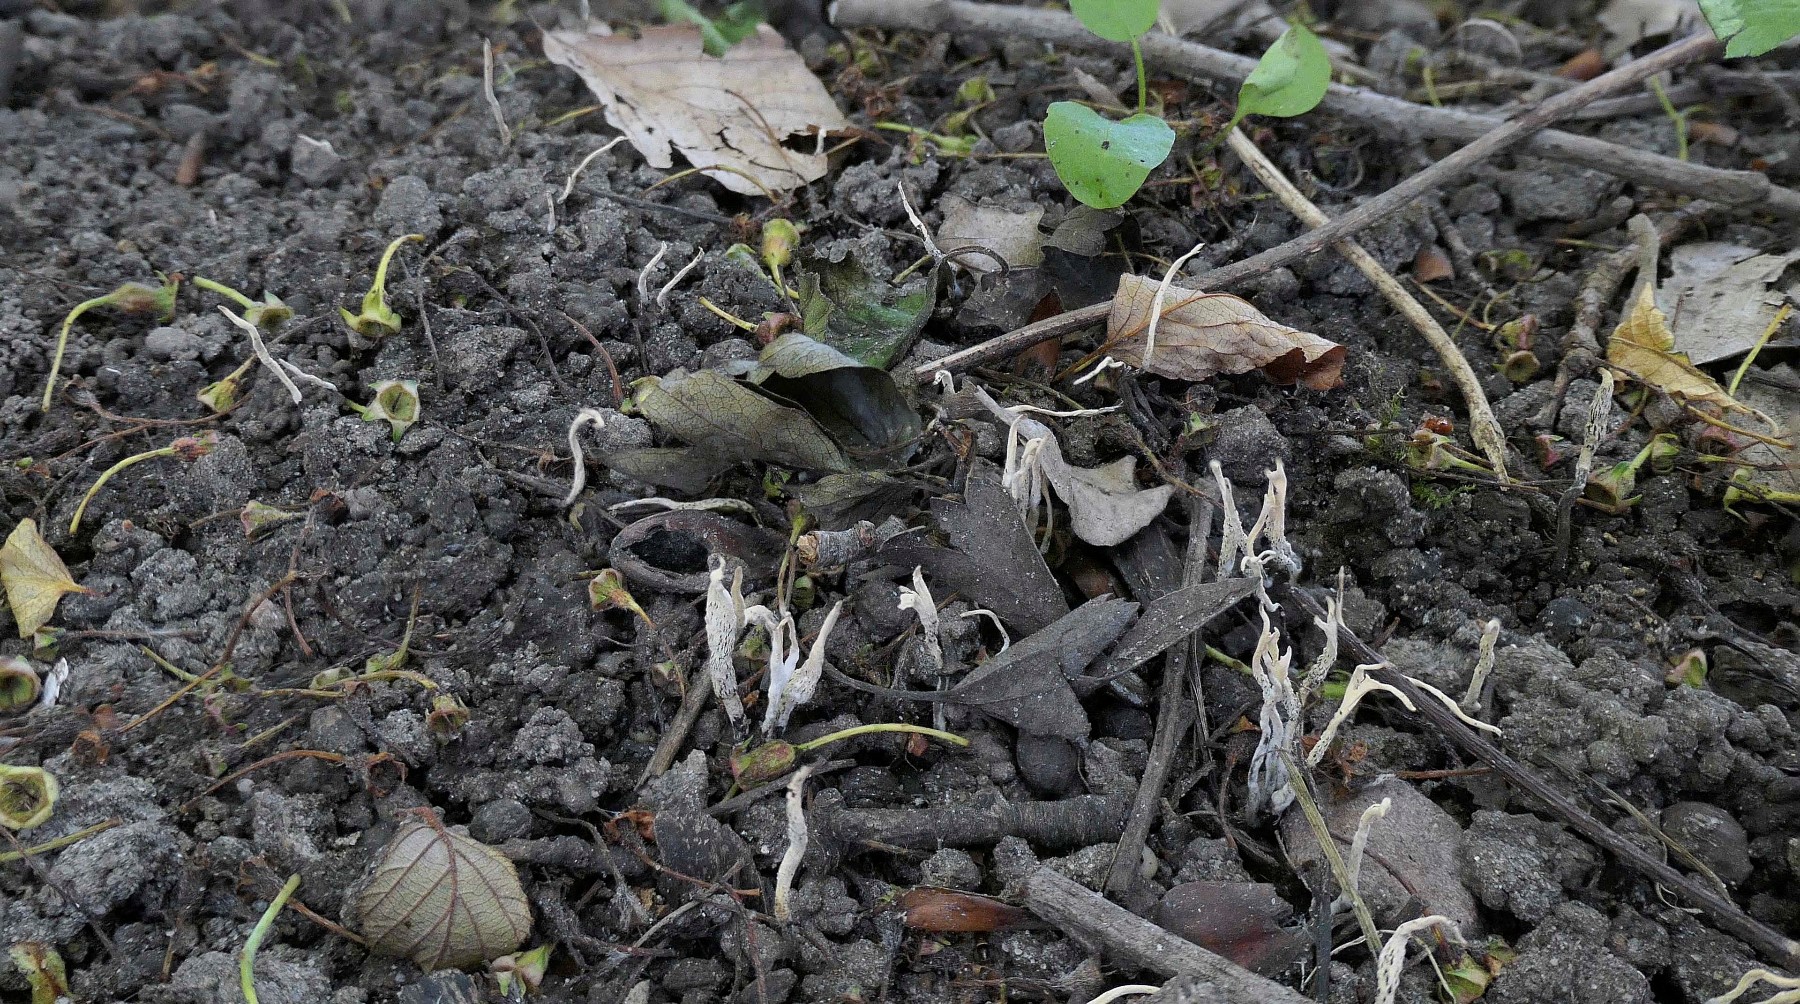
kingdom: Fungi
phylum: Ascomycota
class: Sordariomycetes
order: Xylariales
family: Xylariaceae
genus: Xylaria
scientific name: Xylaria oxyacanthae
